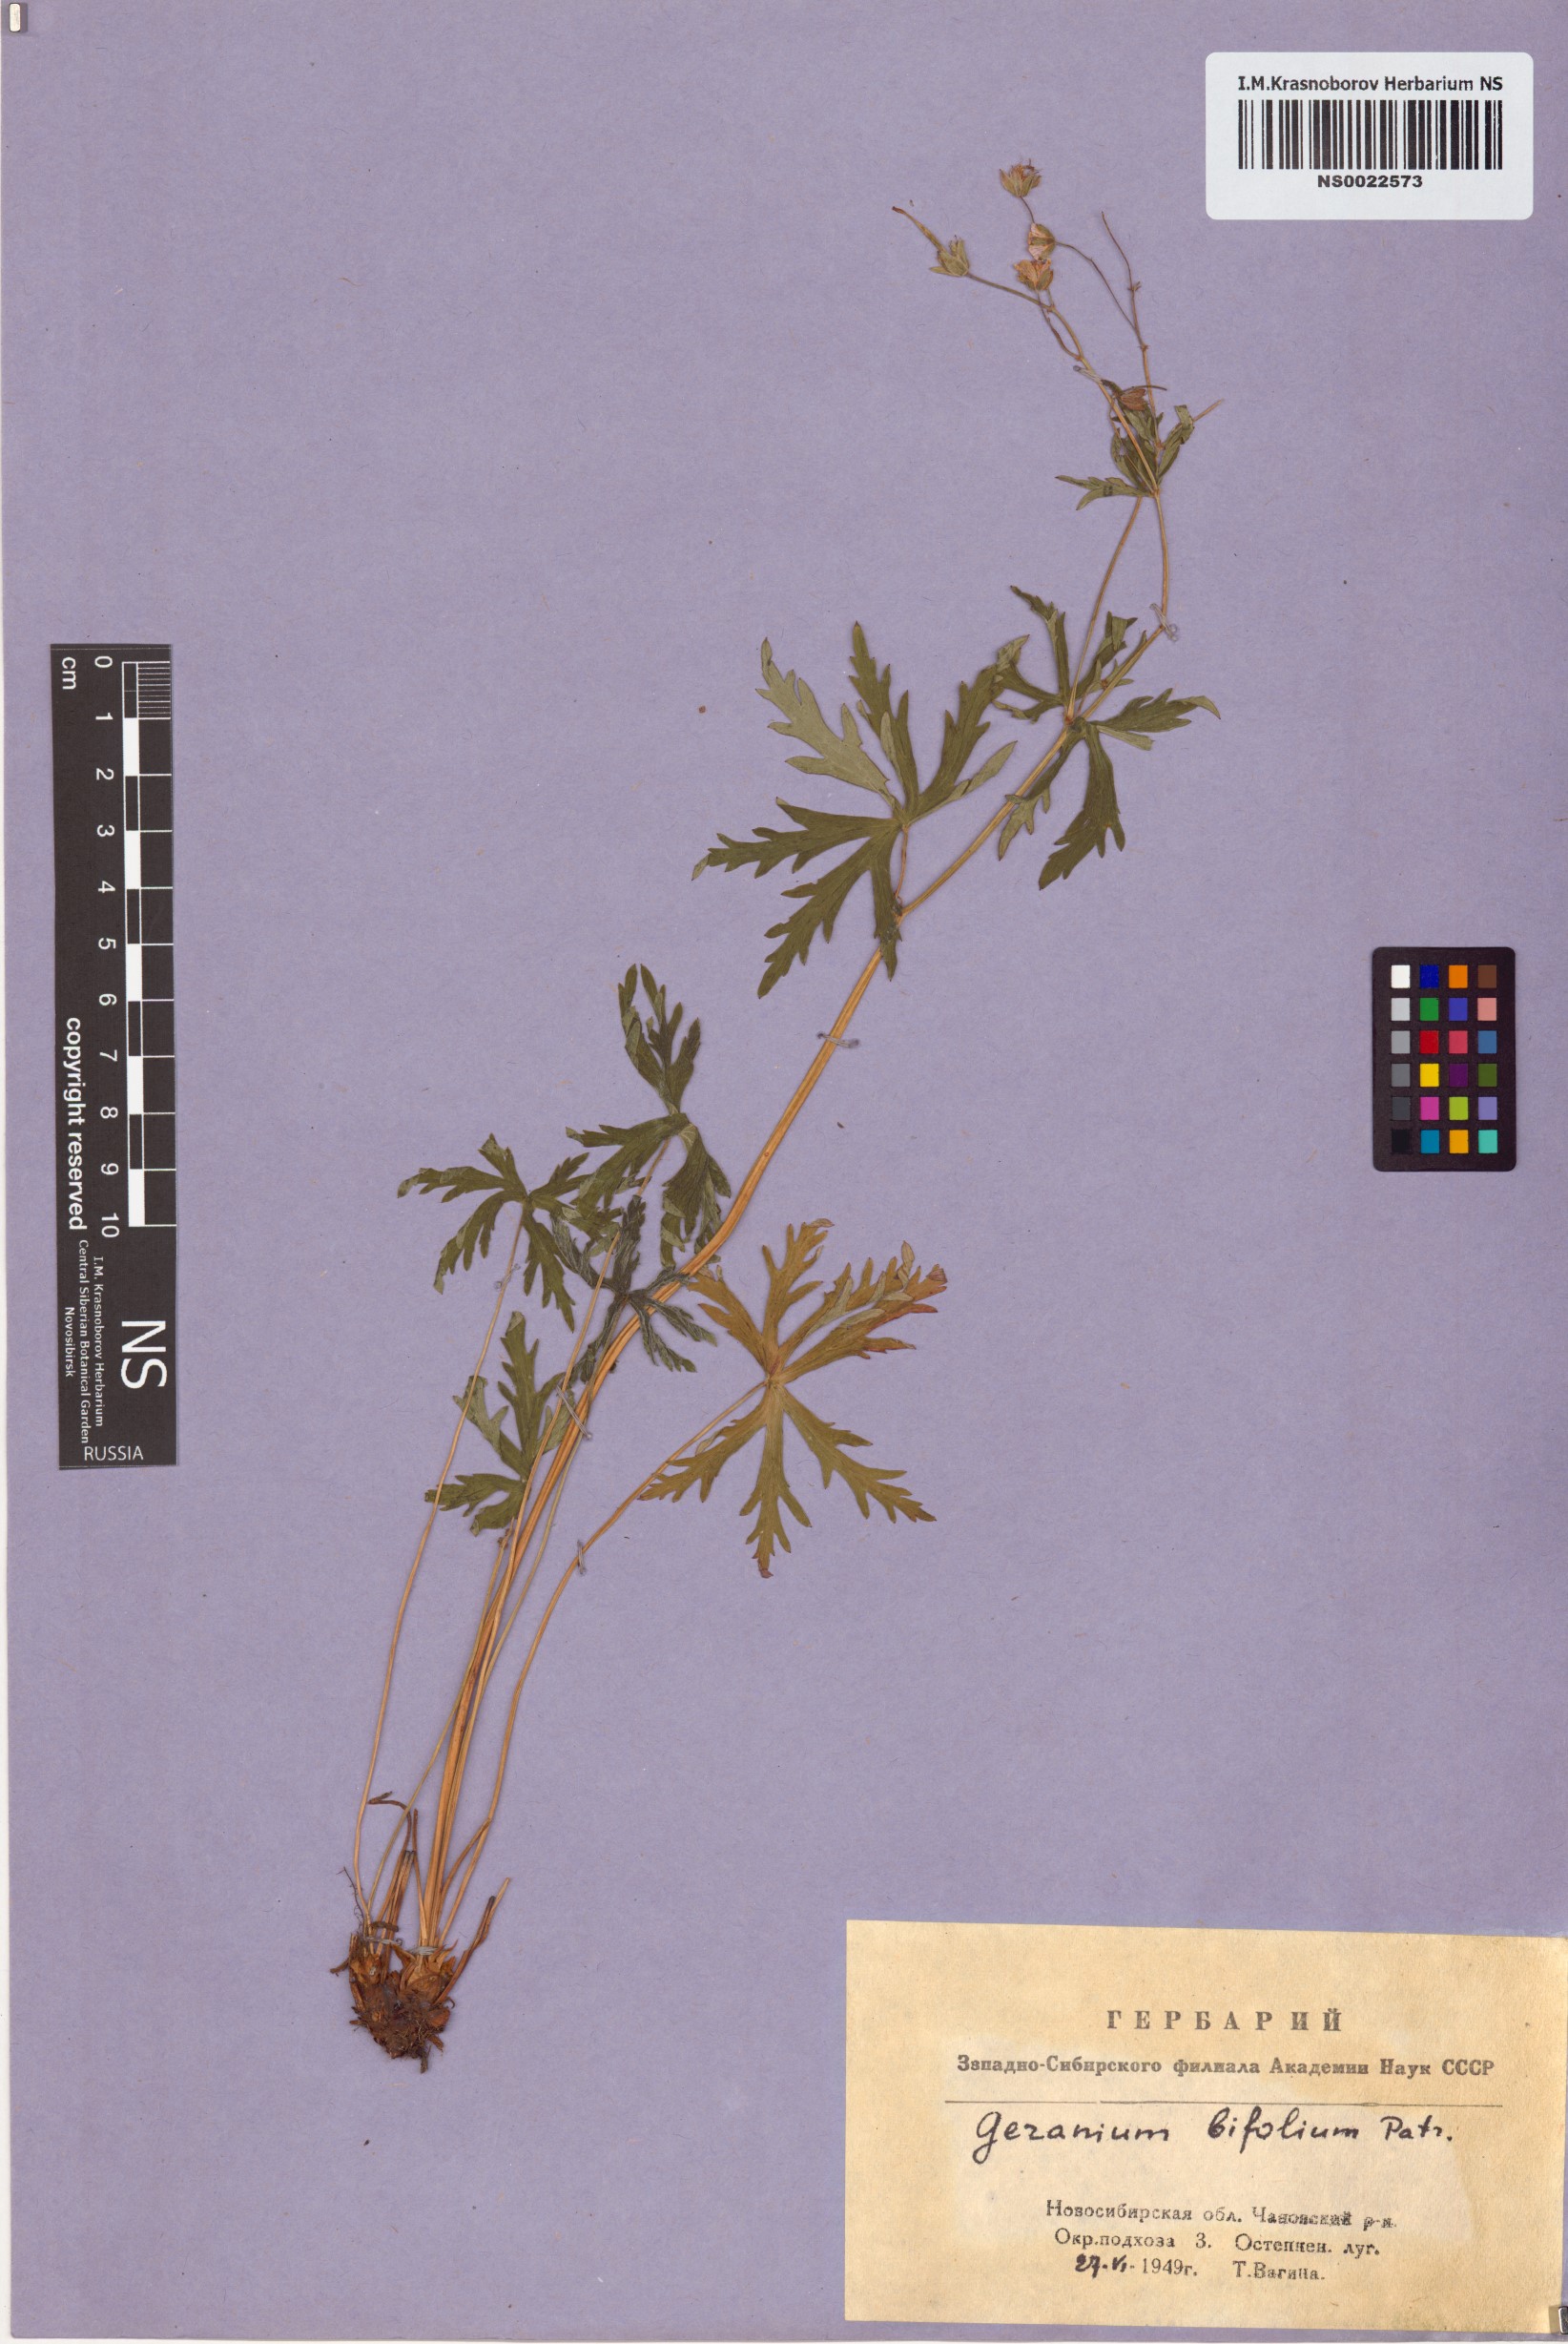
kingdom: Plantae
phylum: Tracheophyta
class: Magnoliopsida
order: Geraniales
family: Geraniaceae
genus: Geranium
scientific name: Geranium pseudosibiricum
